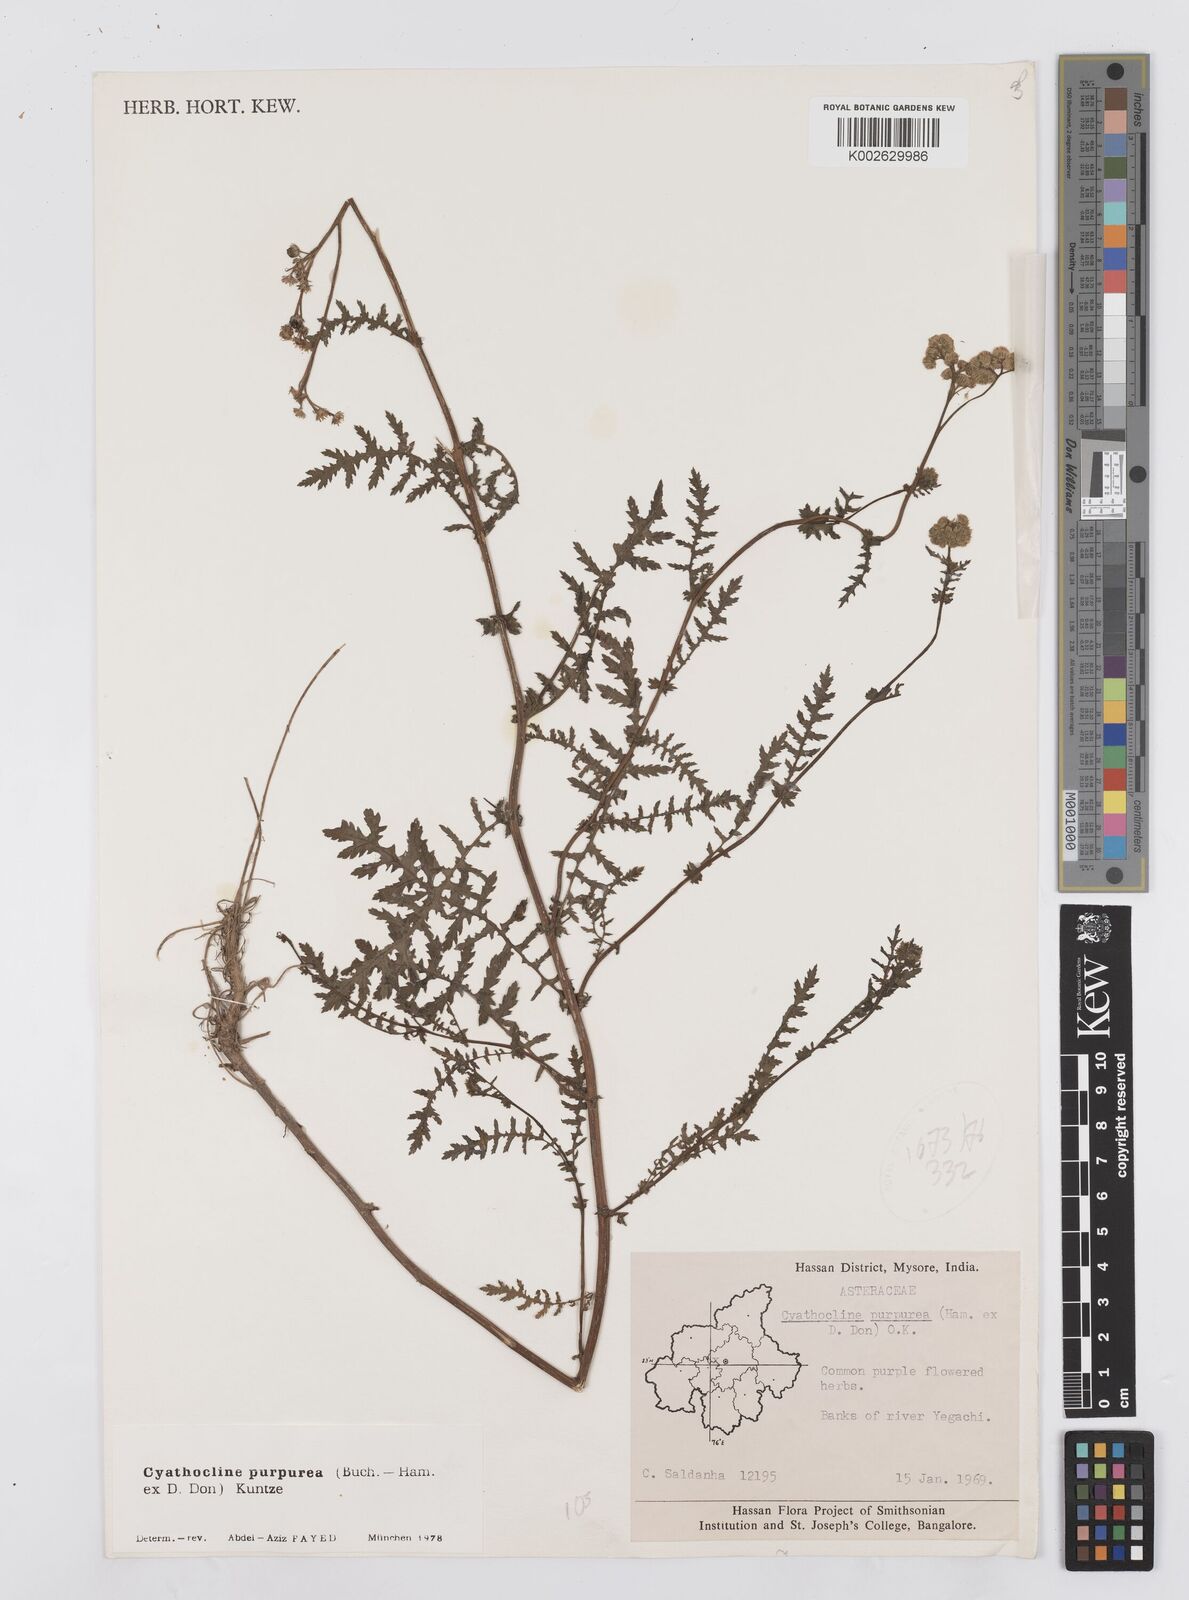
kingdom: Plantae
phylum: Tracheophyta
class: Magnoliopsida
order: Asterales
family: Asteraceae
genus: Cyathocline
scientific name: Cyathocline purpurea
